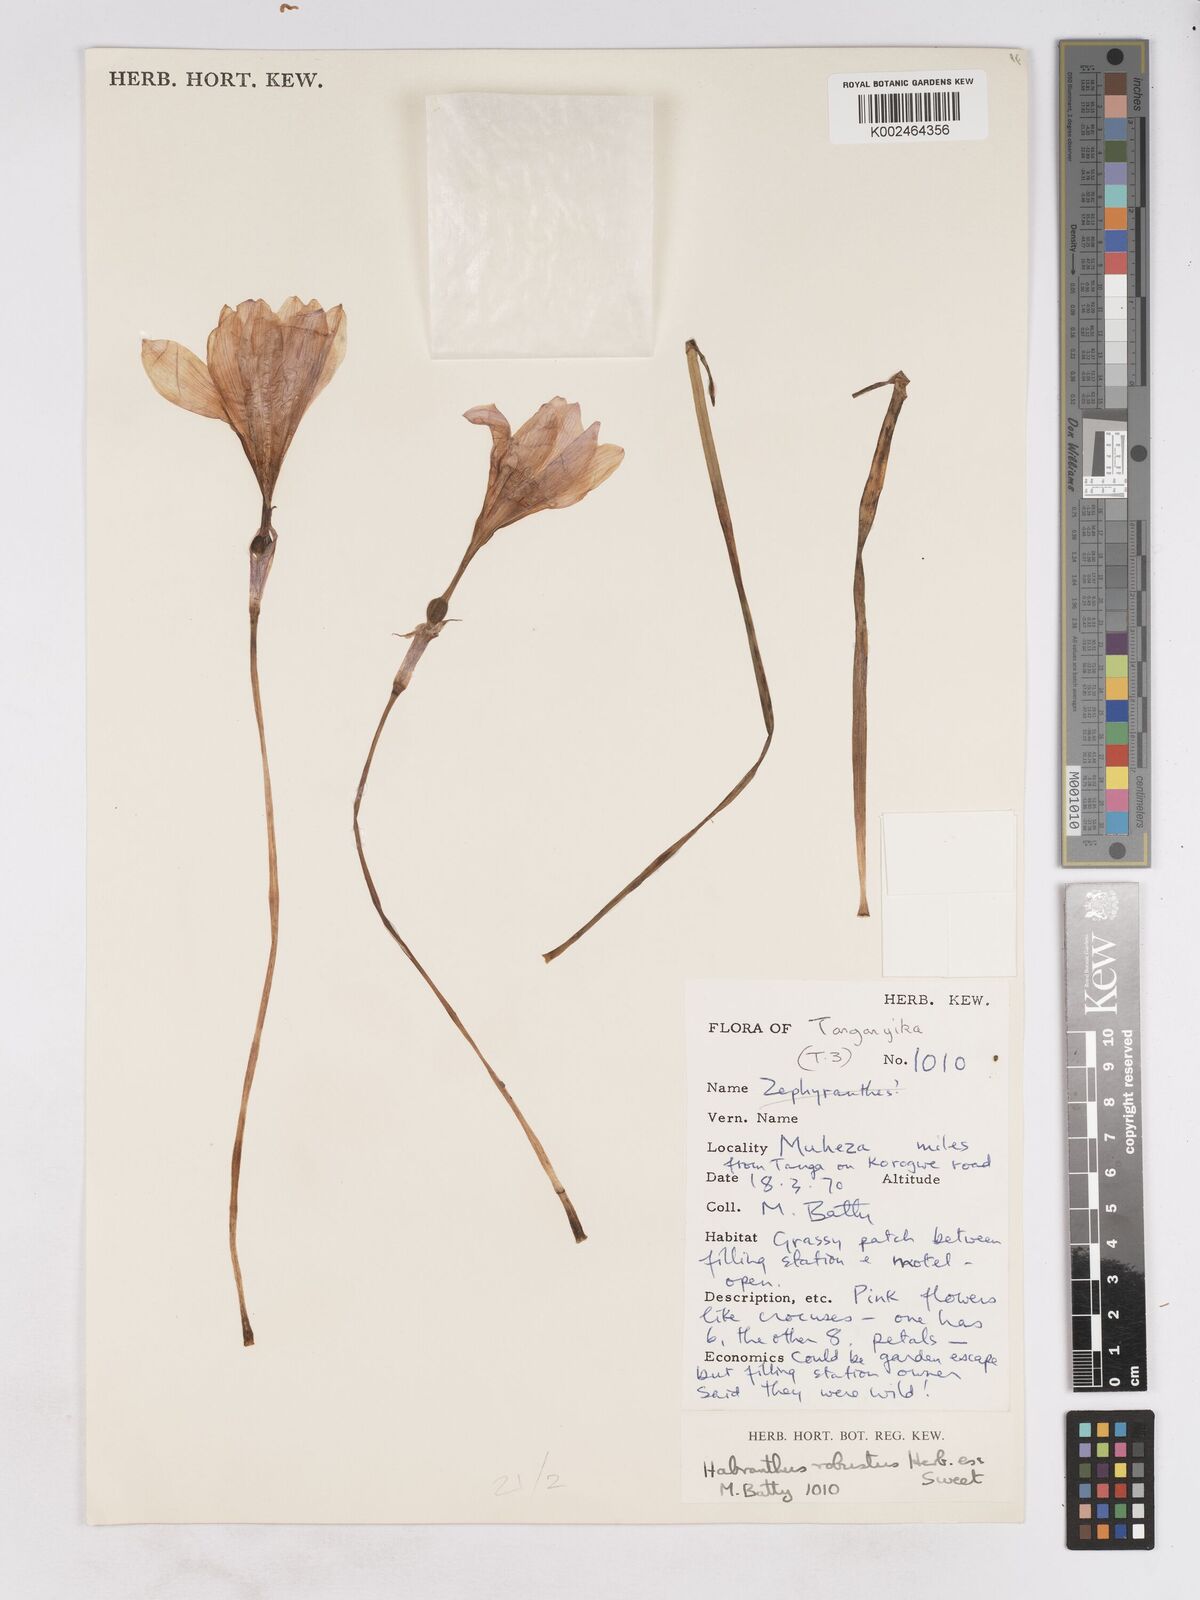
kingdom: Plantae
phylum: Tracheophyta
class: Liliopsida
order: Asparagales
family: Amaryllidaceae
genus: Zephyranthes
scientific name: Zephyranthes robusta
